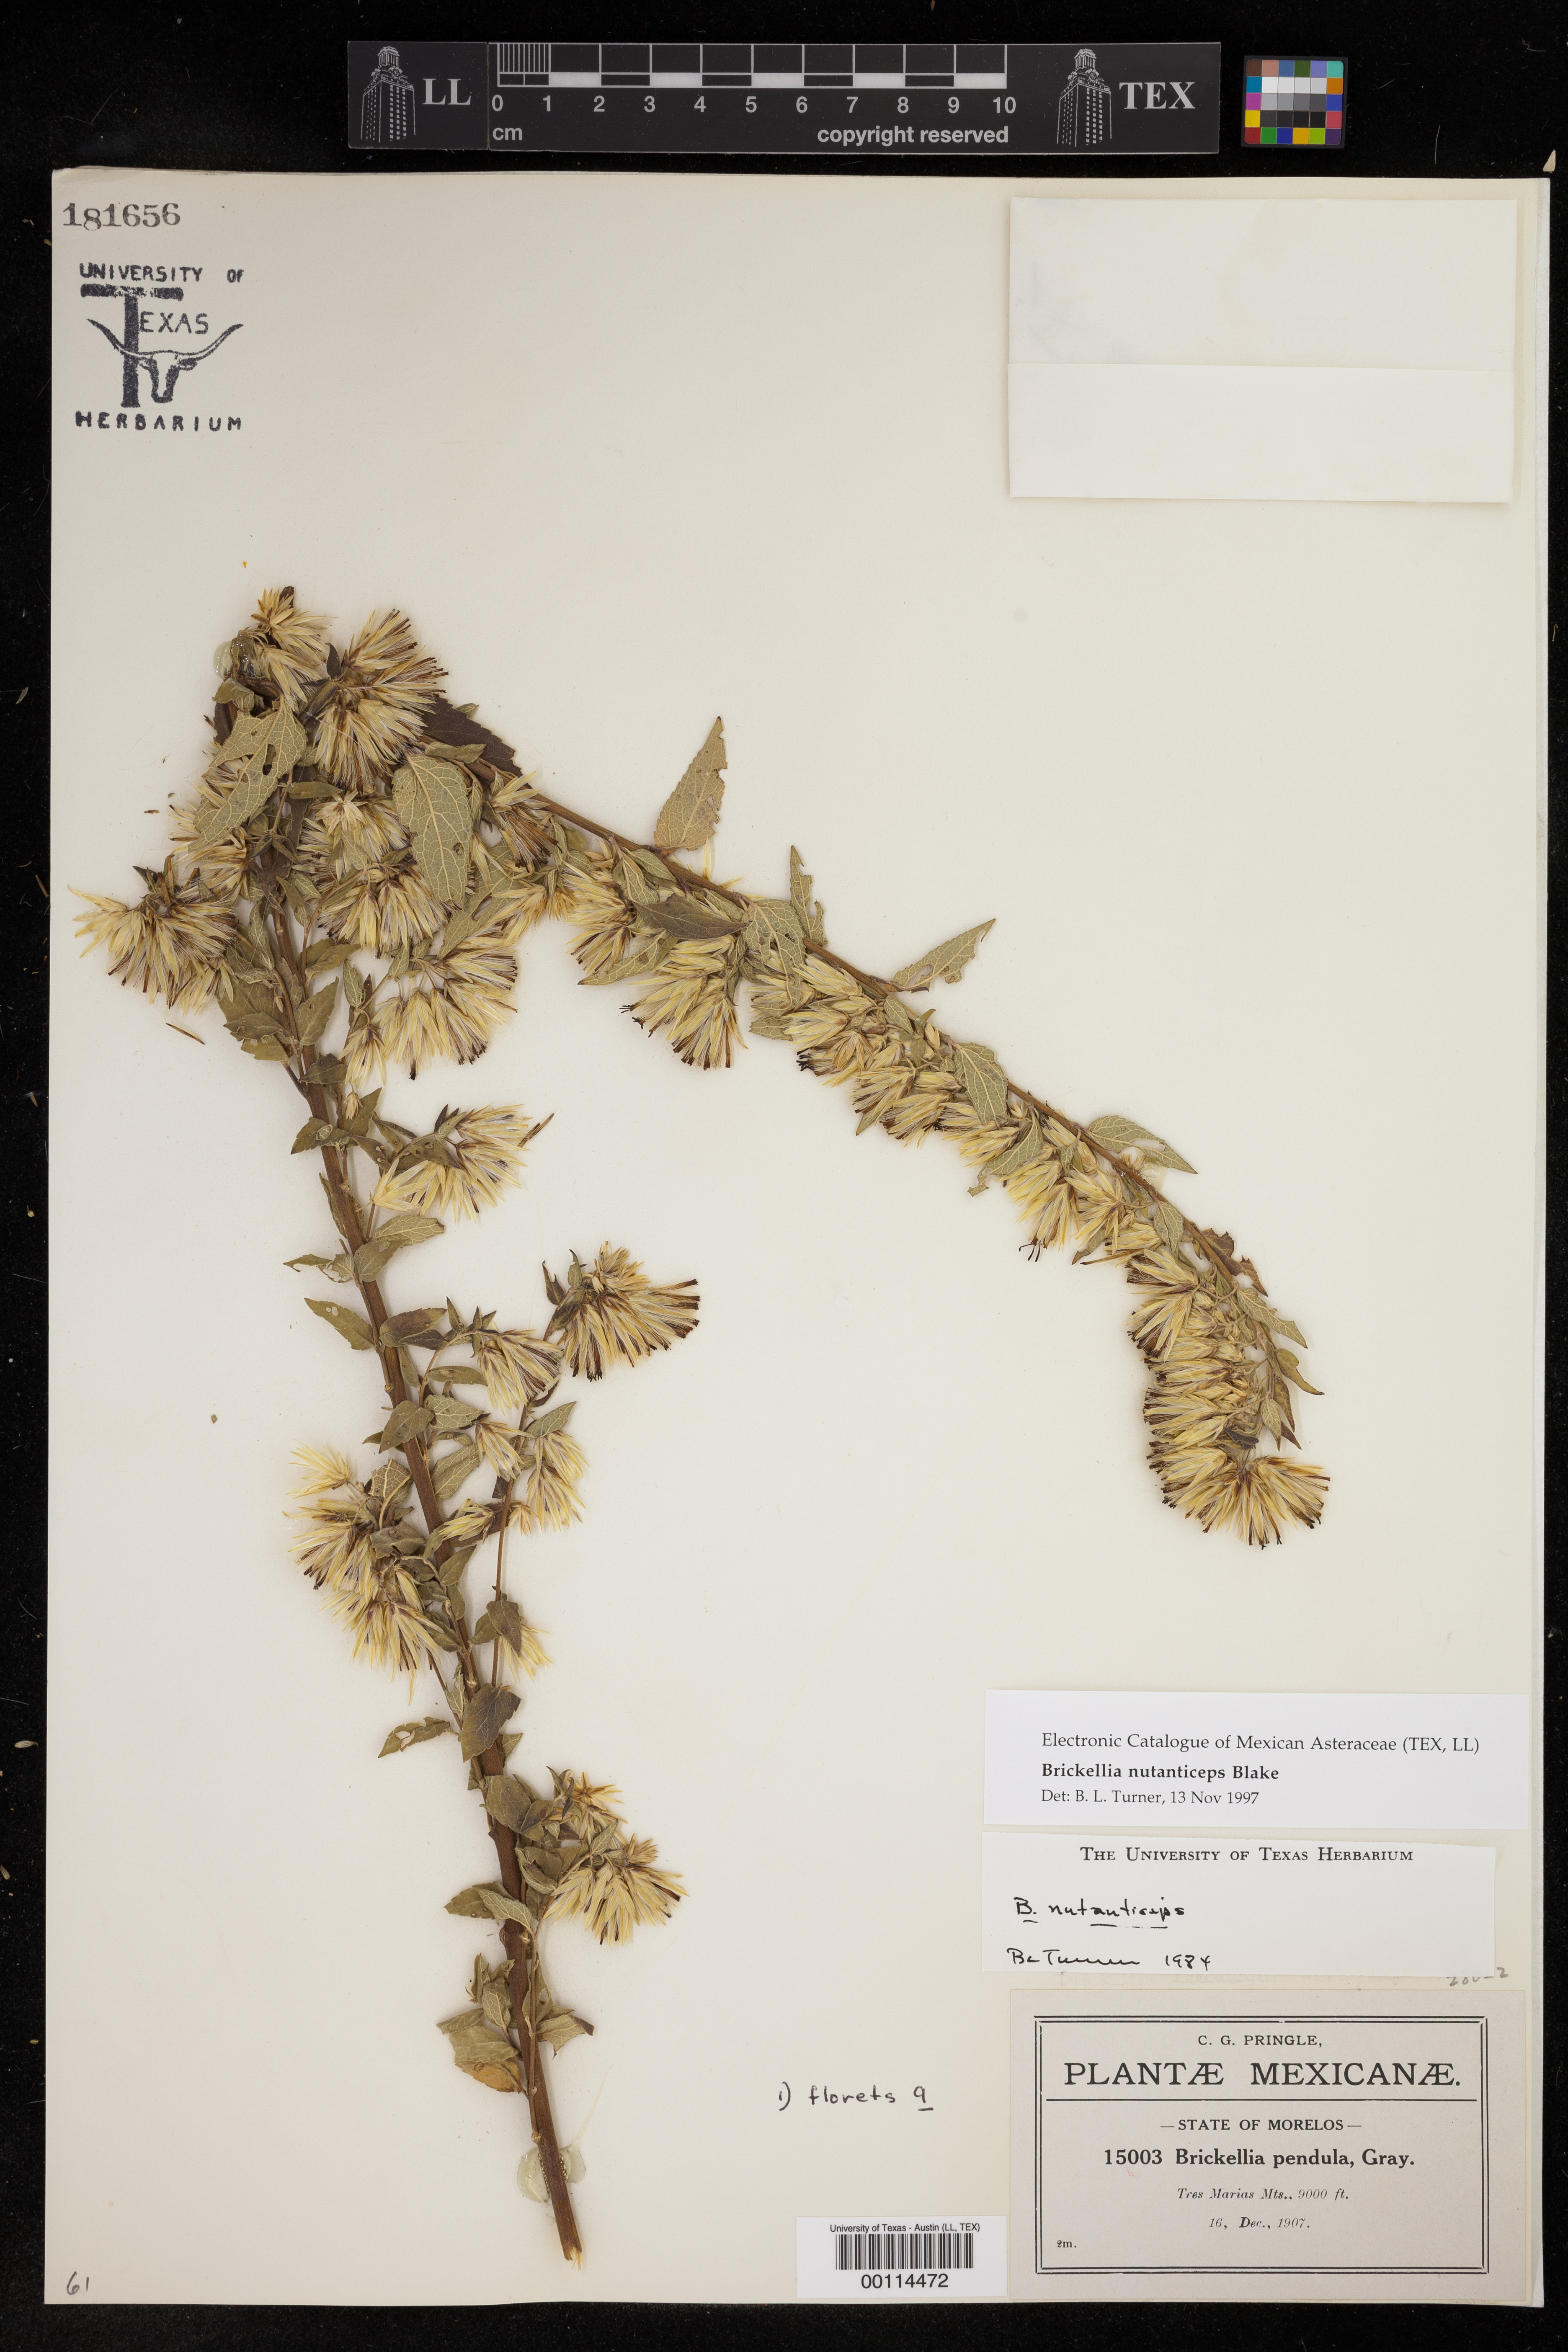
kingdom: Plantae
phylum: Tracheophyta
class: Magnoliopsida
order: Asterales
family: Asteraceae
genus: Brickellia
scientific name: Brickellia nutanticeps
